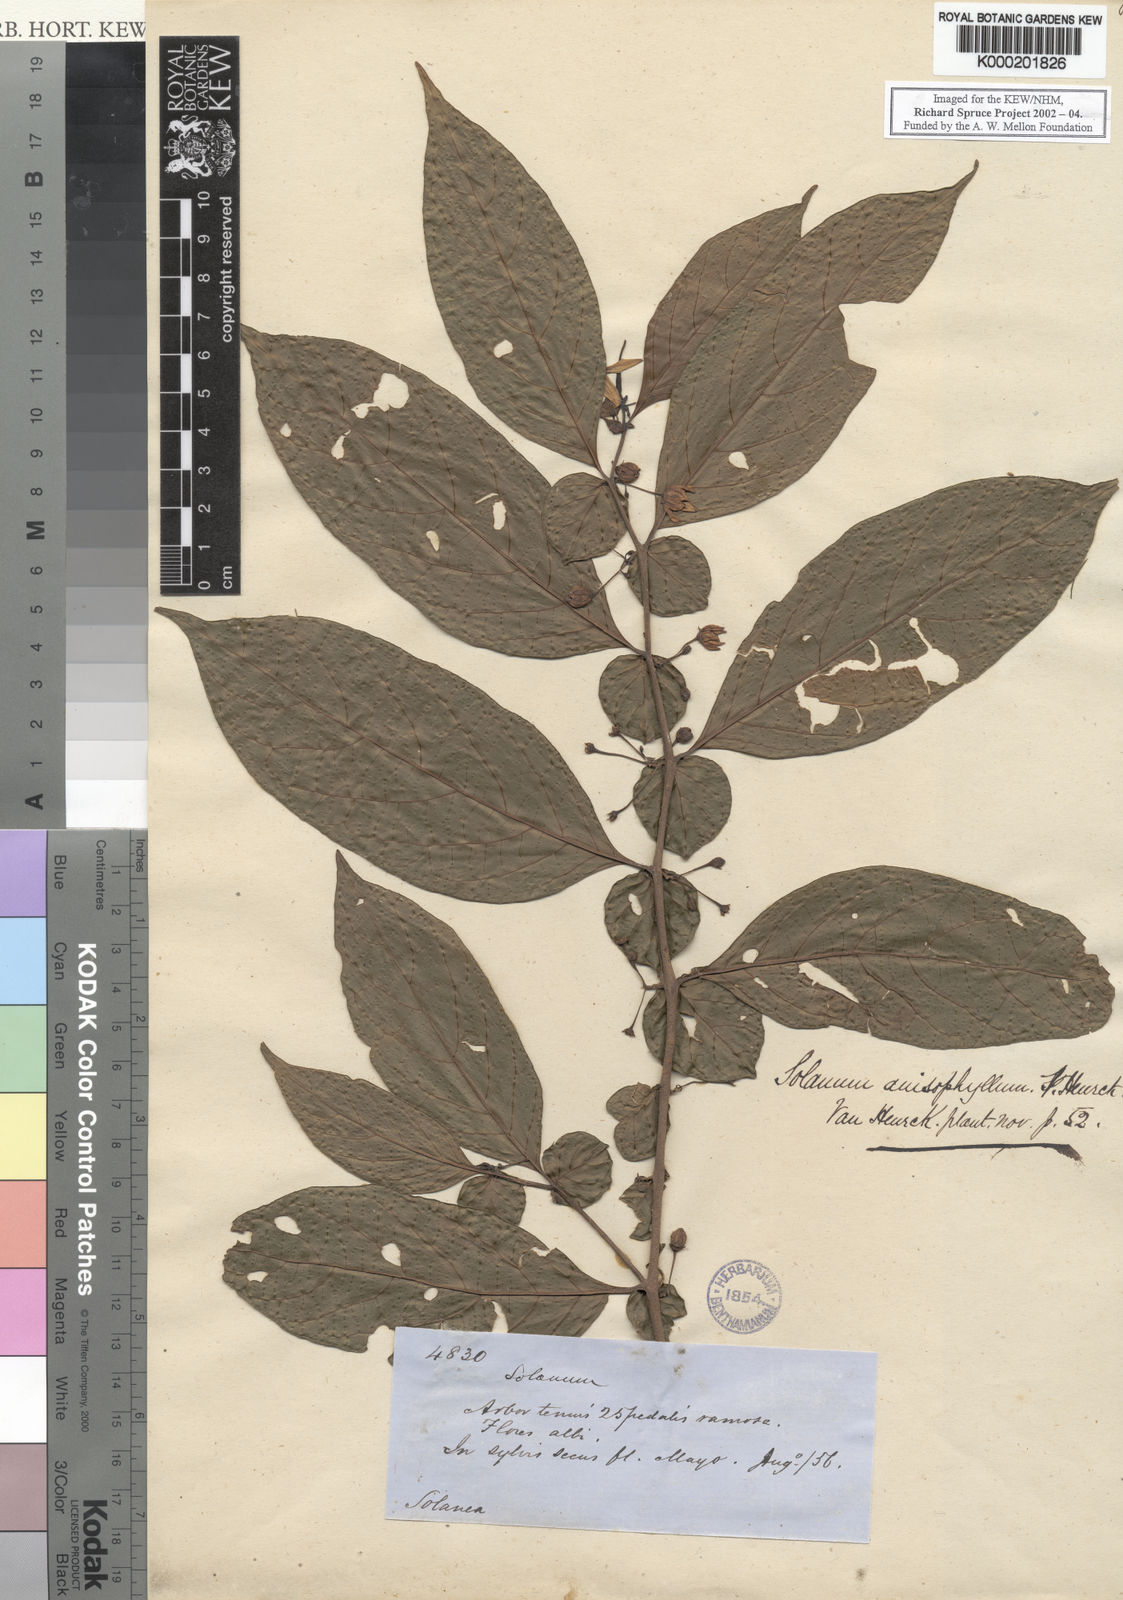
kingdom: Plantae
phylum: Tracheophyta
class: Magnoliopsida
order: Solanales
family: Solanaceae
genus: Solanum
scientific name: Solanum
